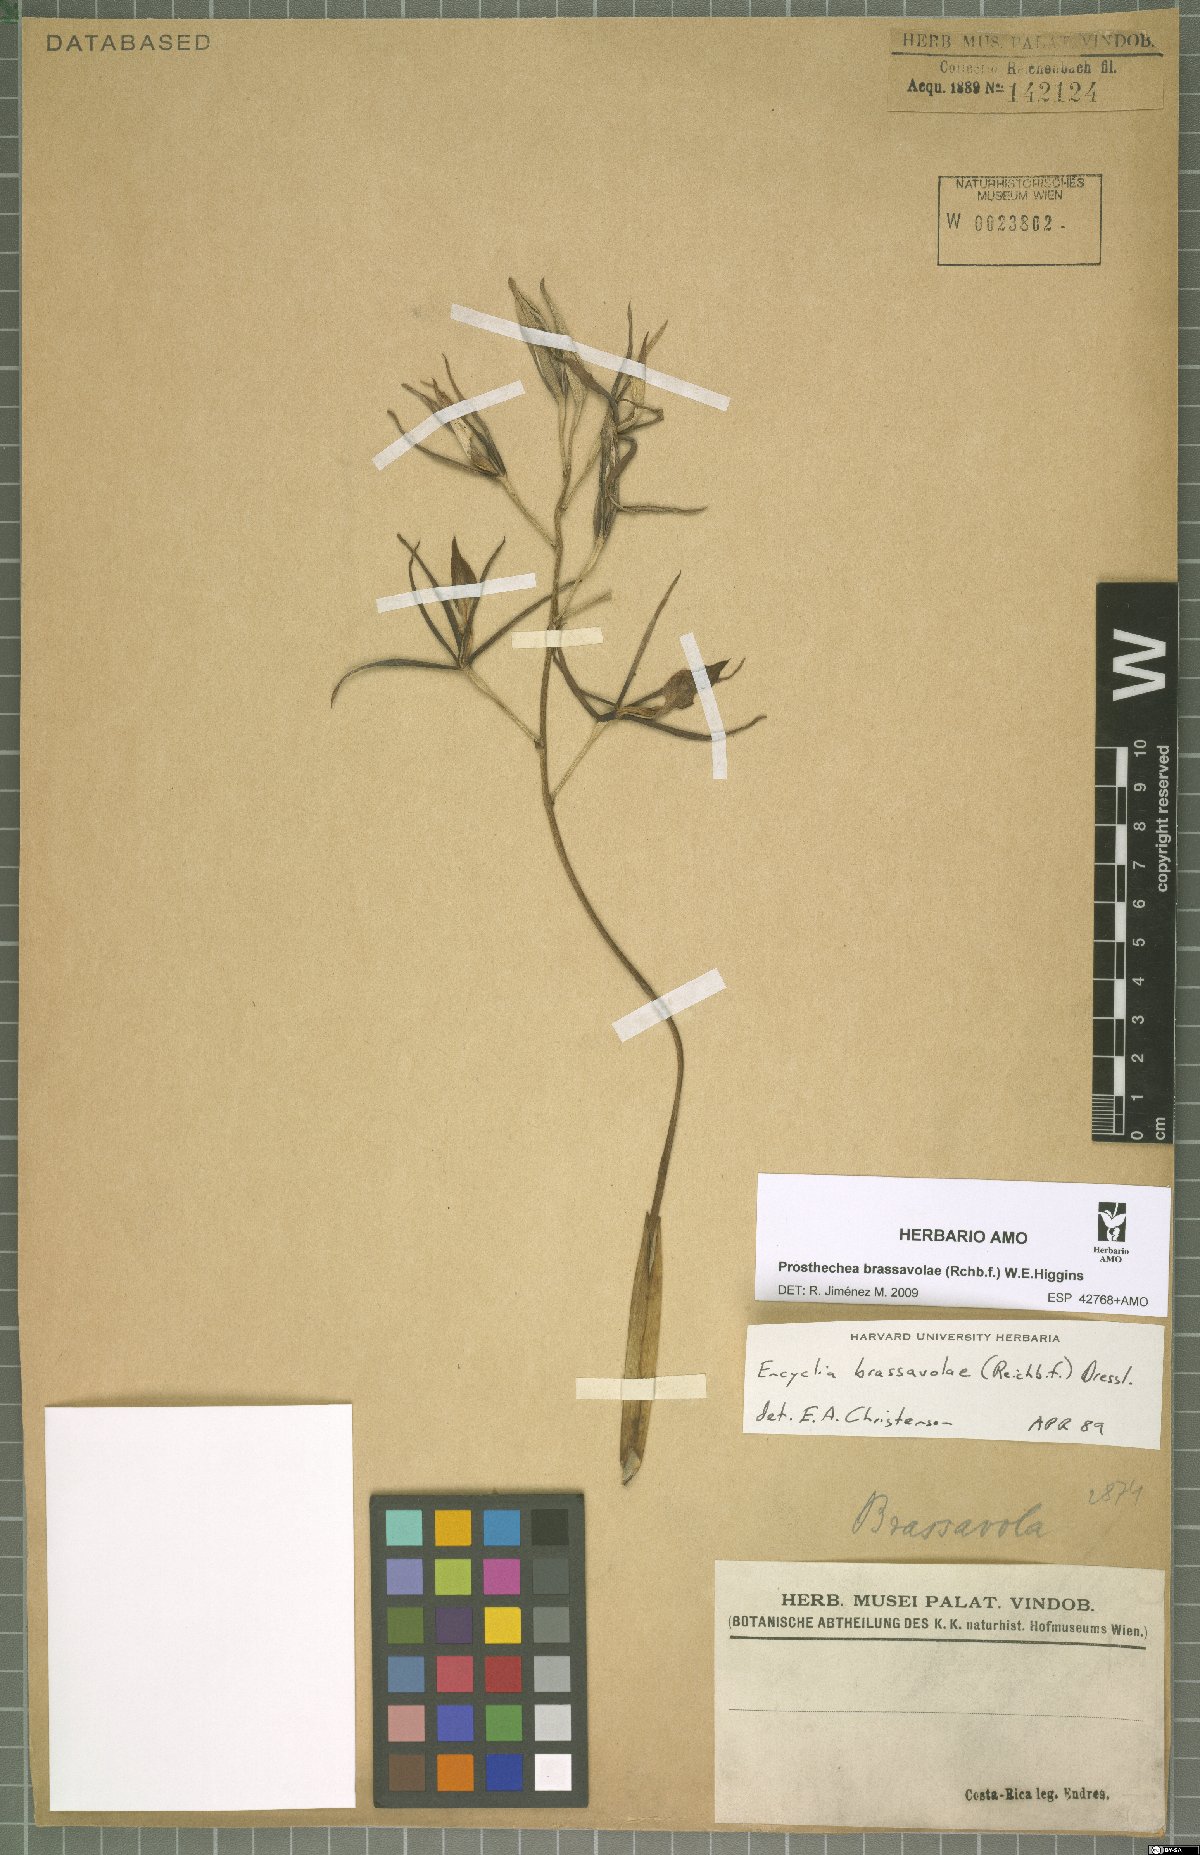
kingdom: Plantae
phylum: Tracheophyta
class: Liliopsida
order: Asparagales
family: Orchidaceae
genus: Prosthechea
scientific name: Prosthechea brassavolae
